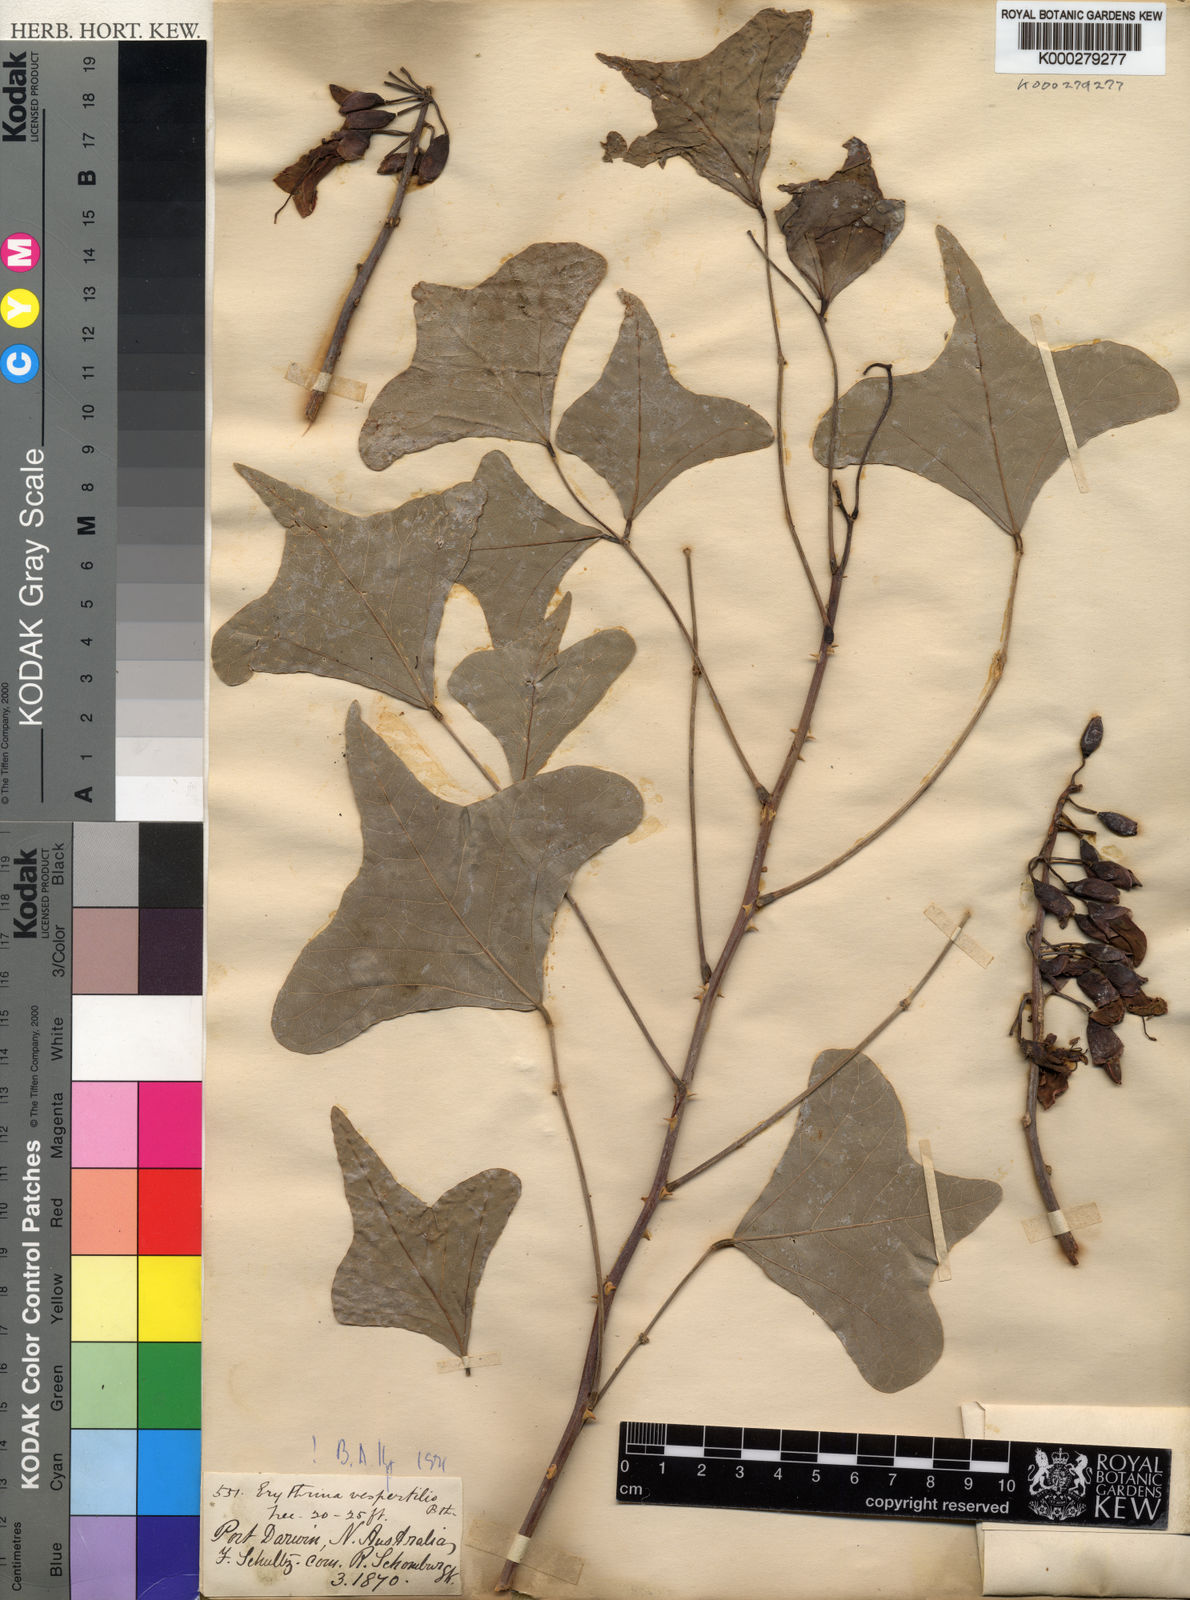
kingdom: Plantae
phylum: Tracheophyta
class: Magnoliopsida
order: Fabales
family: Fabaceae
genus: Erythrina
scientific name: Erythrina vespertilio
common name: Bat-wing coral tree
